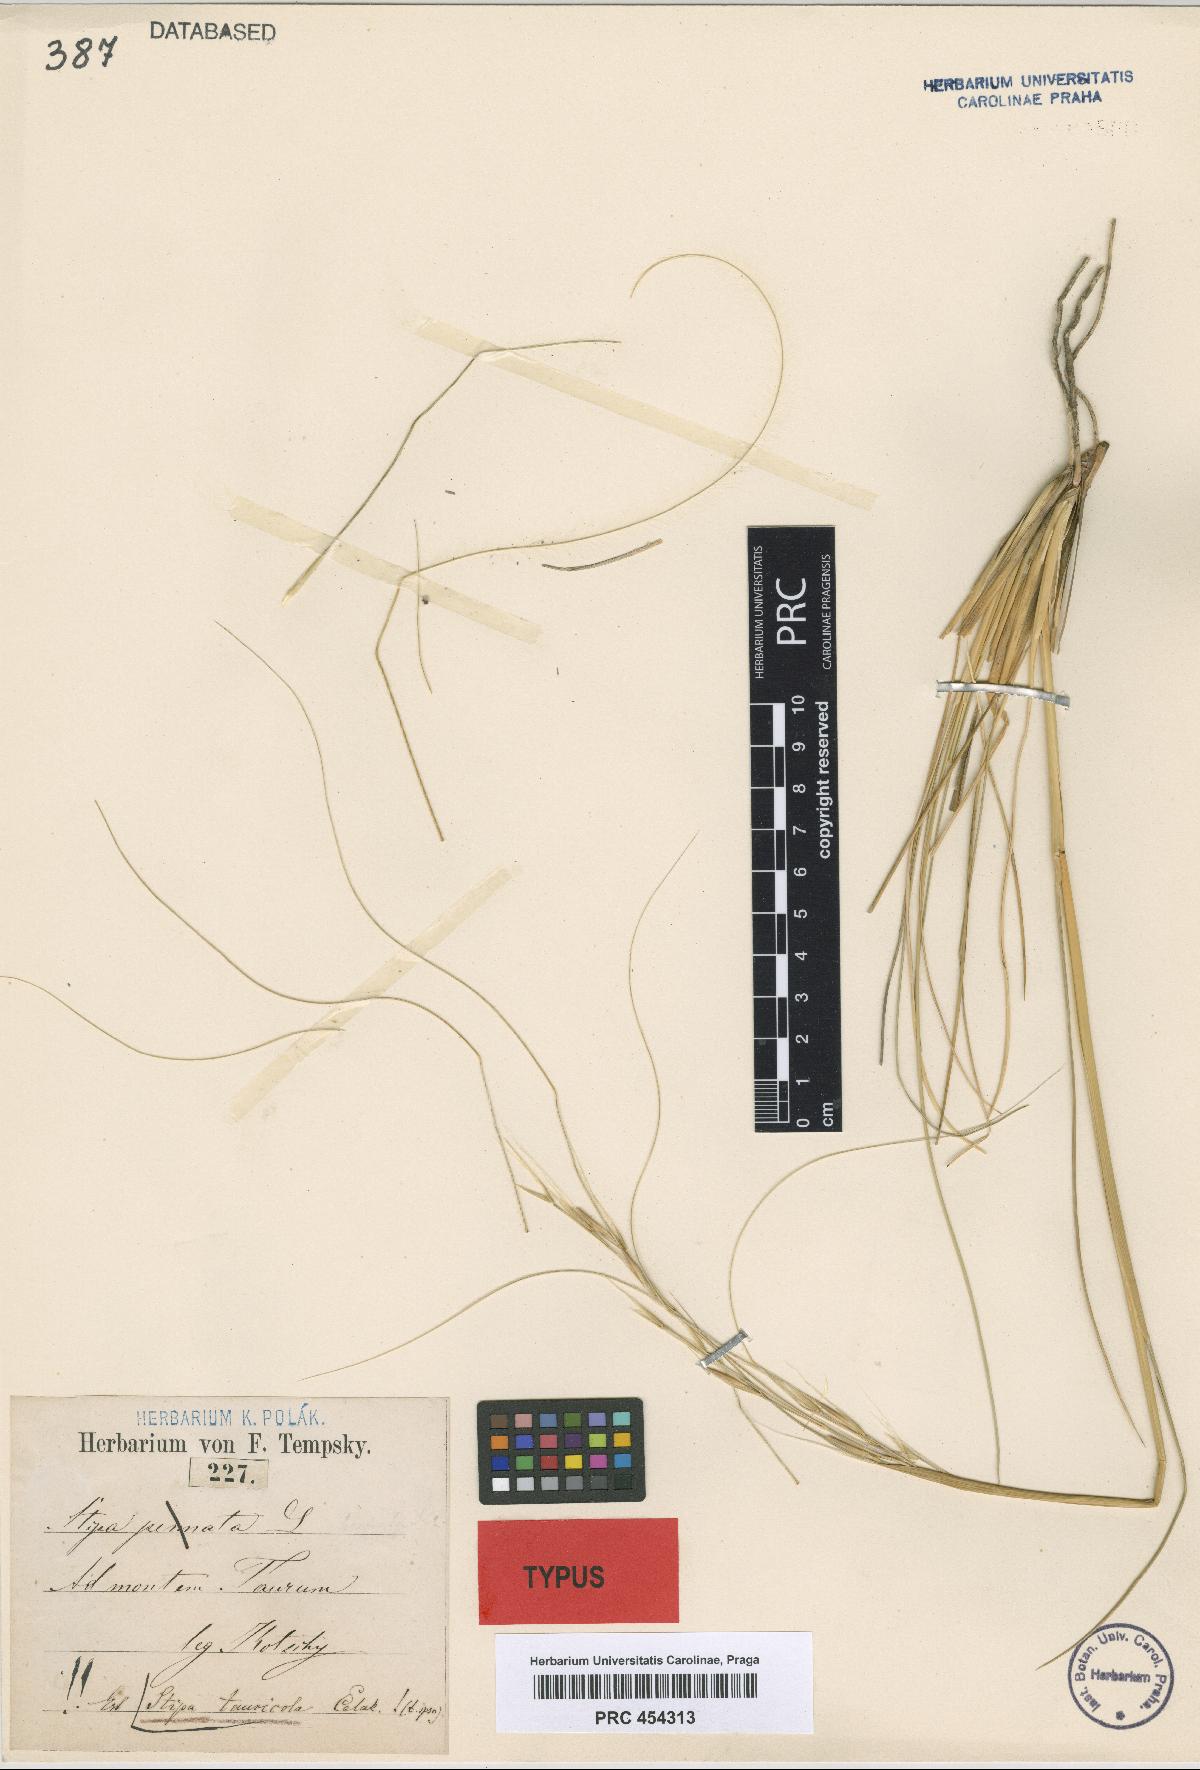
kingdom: Plantae
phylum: Tracheophyta
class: Liliopsida
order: Poales
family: Poaceae
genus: Stipa
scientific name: Stipa pennata
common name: European feather grass
